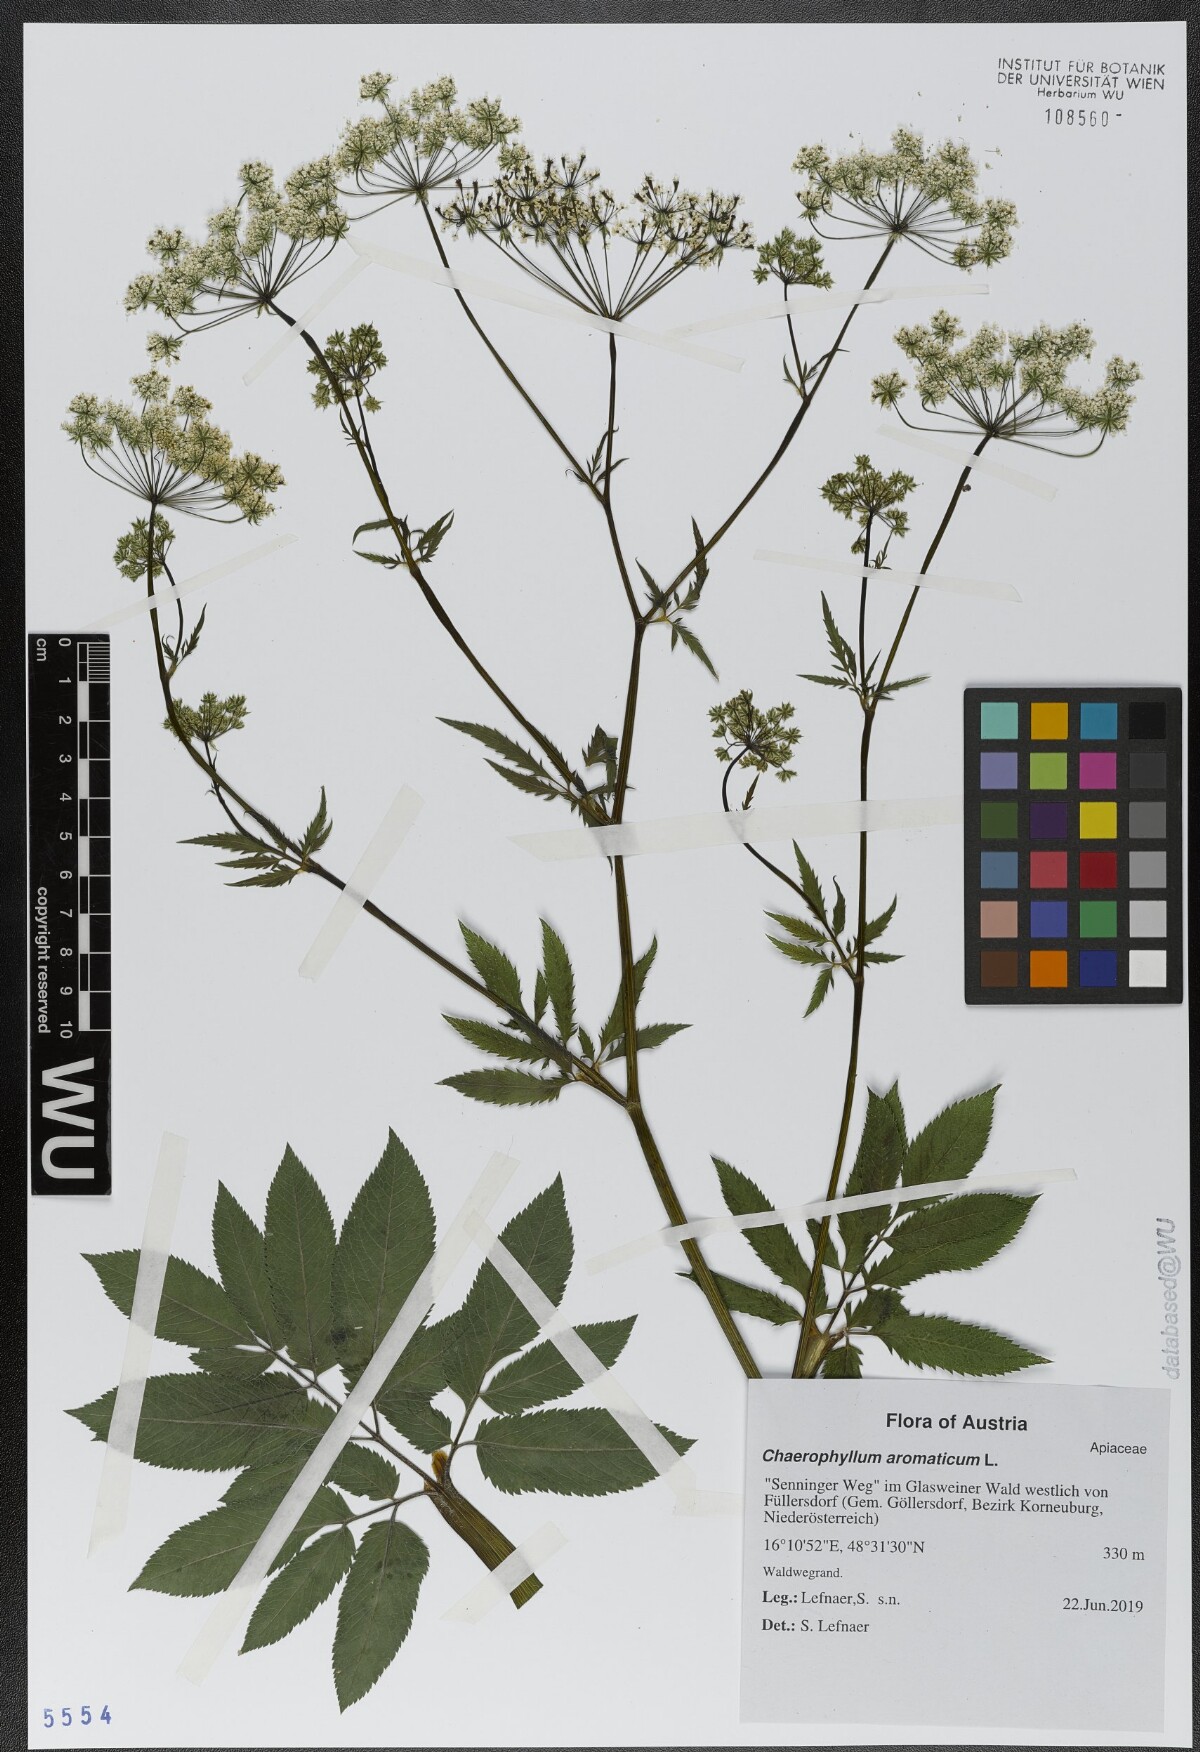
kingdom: Plantae
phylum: Tracheophyta
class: Magnoliopsida
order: Apiales
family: Apiaceae
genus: Chaerophyllum
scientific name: Chaerophyllum aromaticum
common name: Broadleaf chervil
